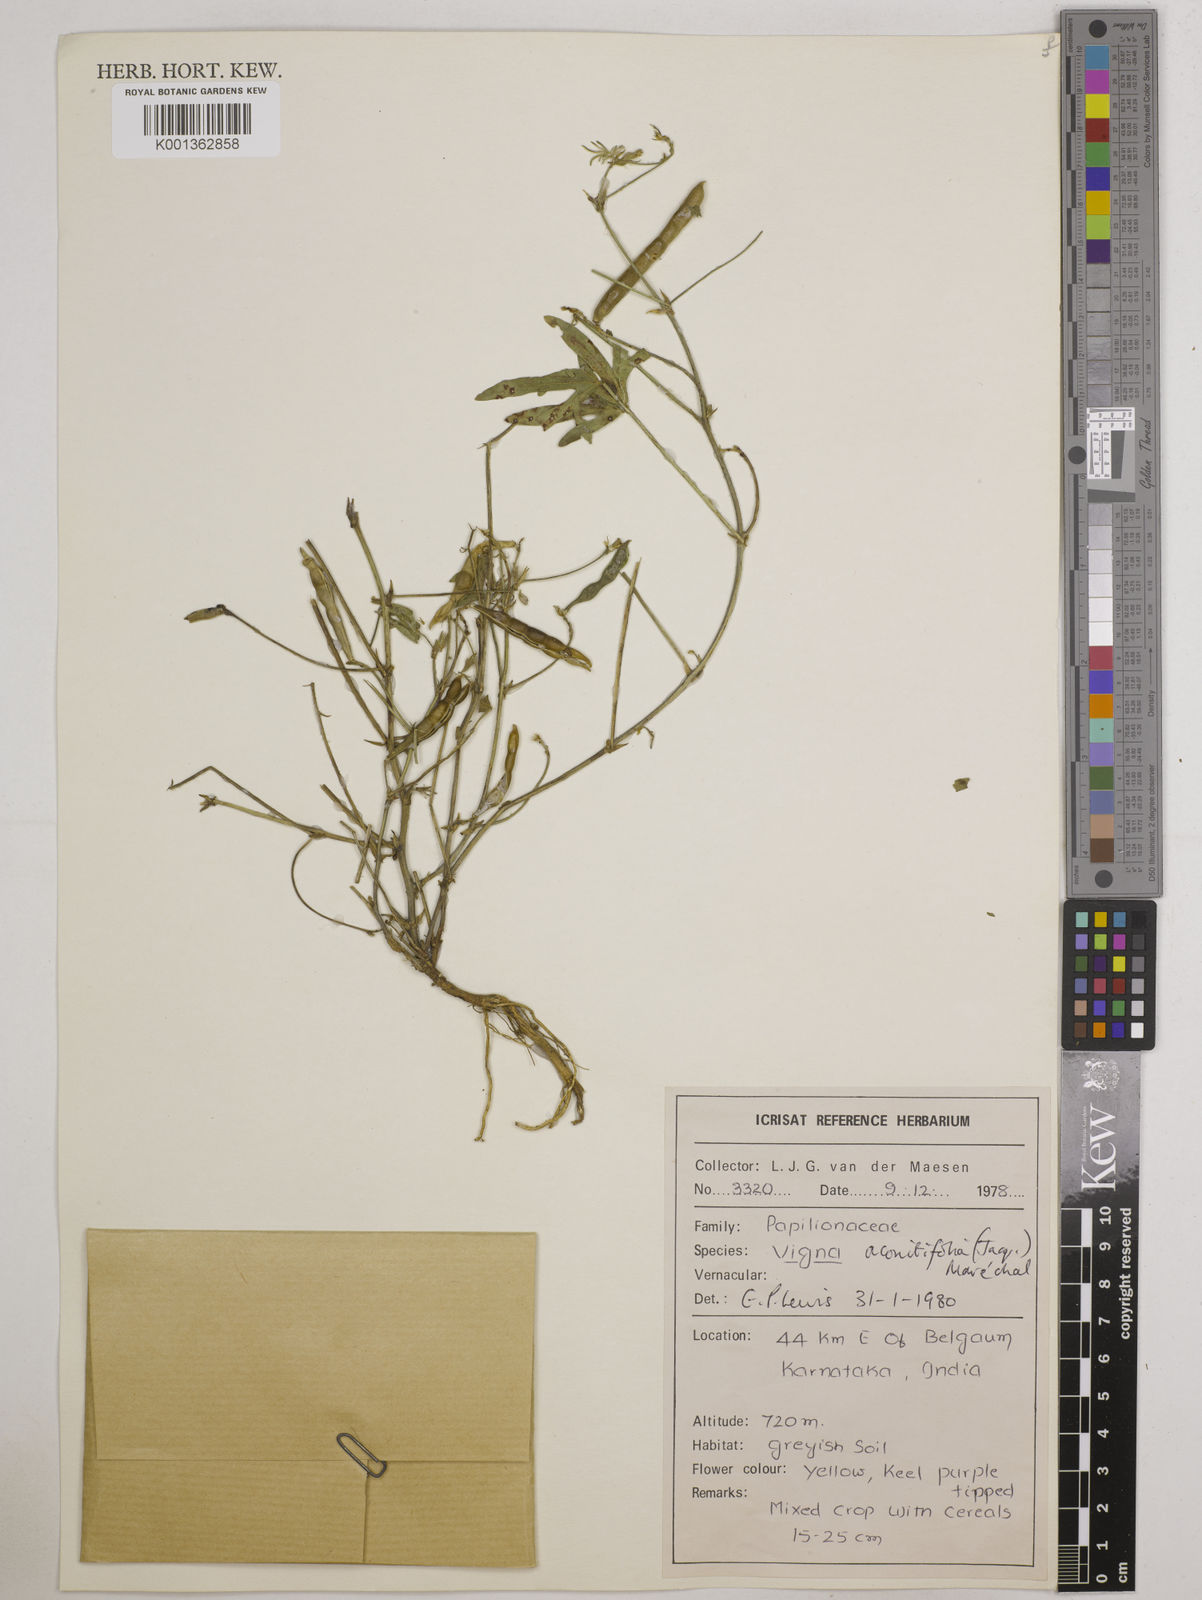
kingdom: Plantae
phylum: Tracheophyta
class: Magnoliopsida
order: Fabales
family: Fabaceae
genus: Vigna
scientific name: Vigna aconitifolia
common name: Dew bean
